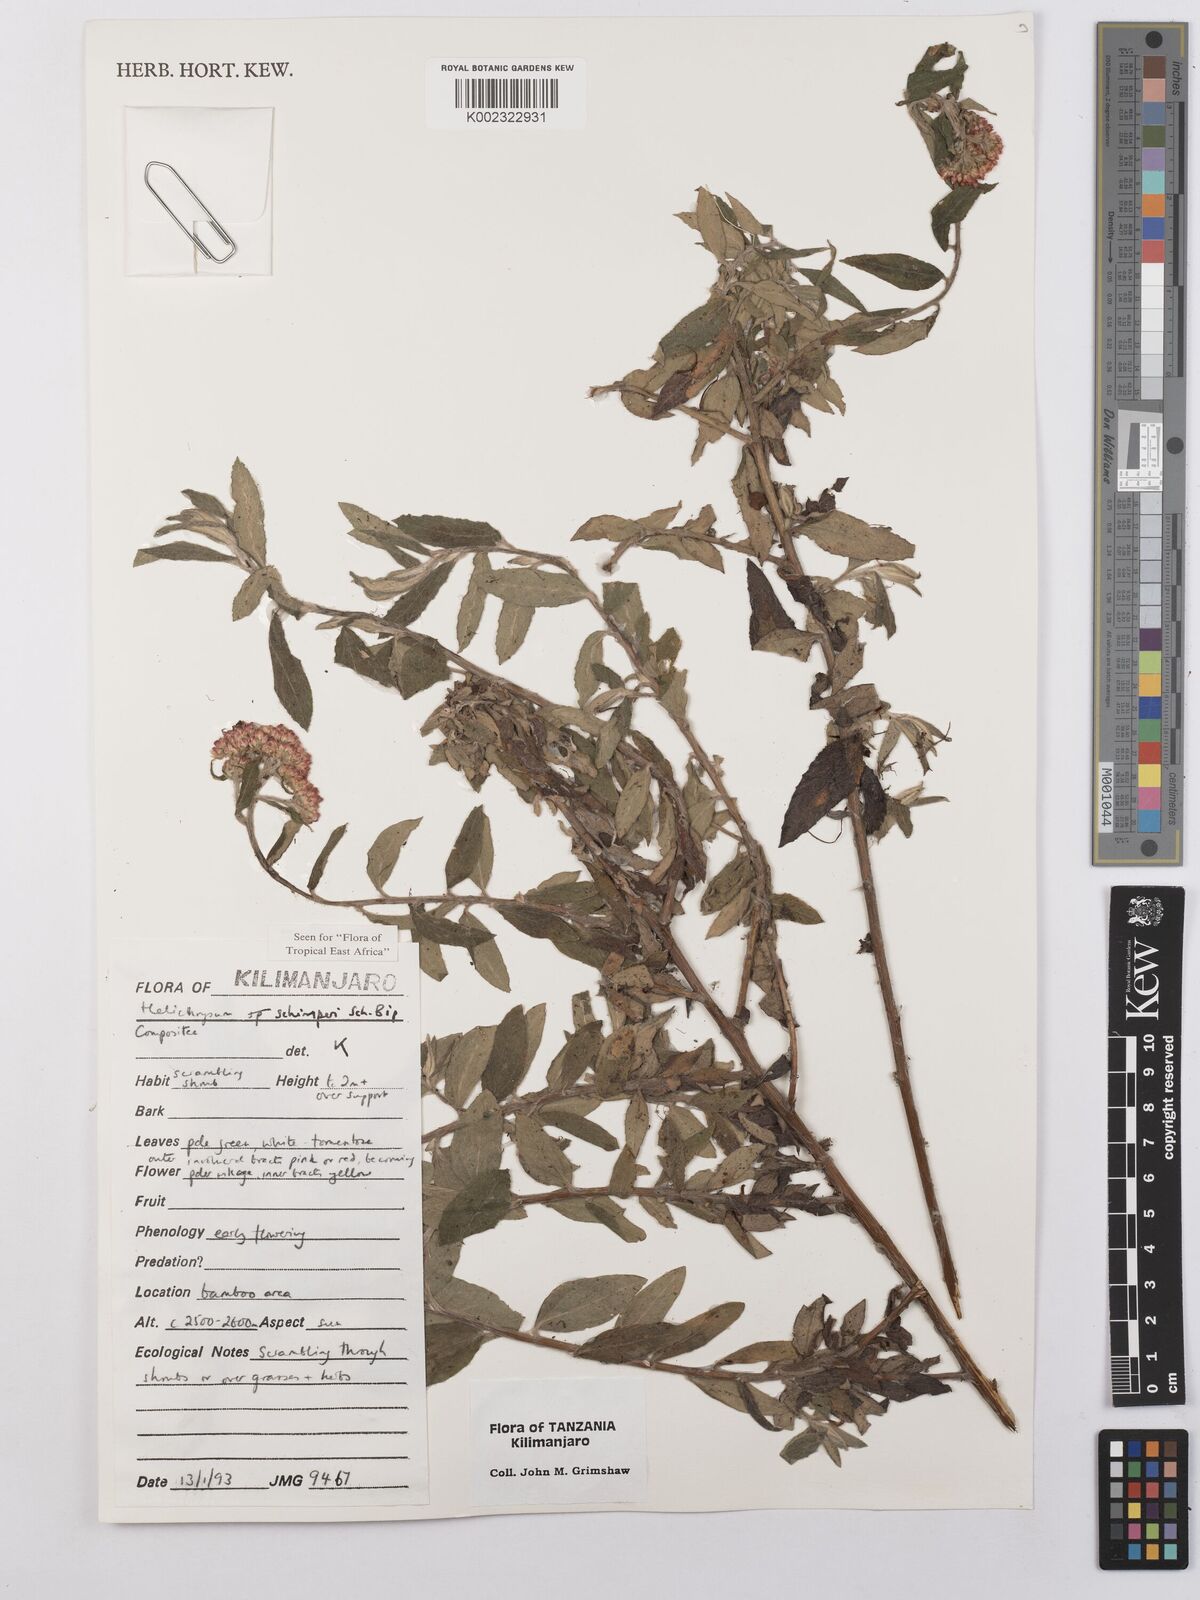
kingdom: Plantae
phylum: Tracheophyta
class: Magnoliopsida
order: Asterales
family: Asteraceae
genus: Helichrysum
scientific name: Helichrysum schimperi
